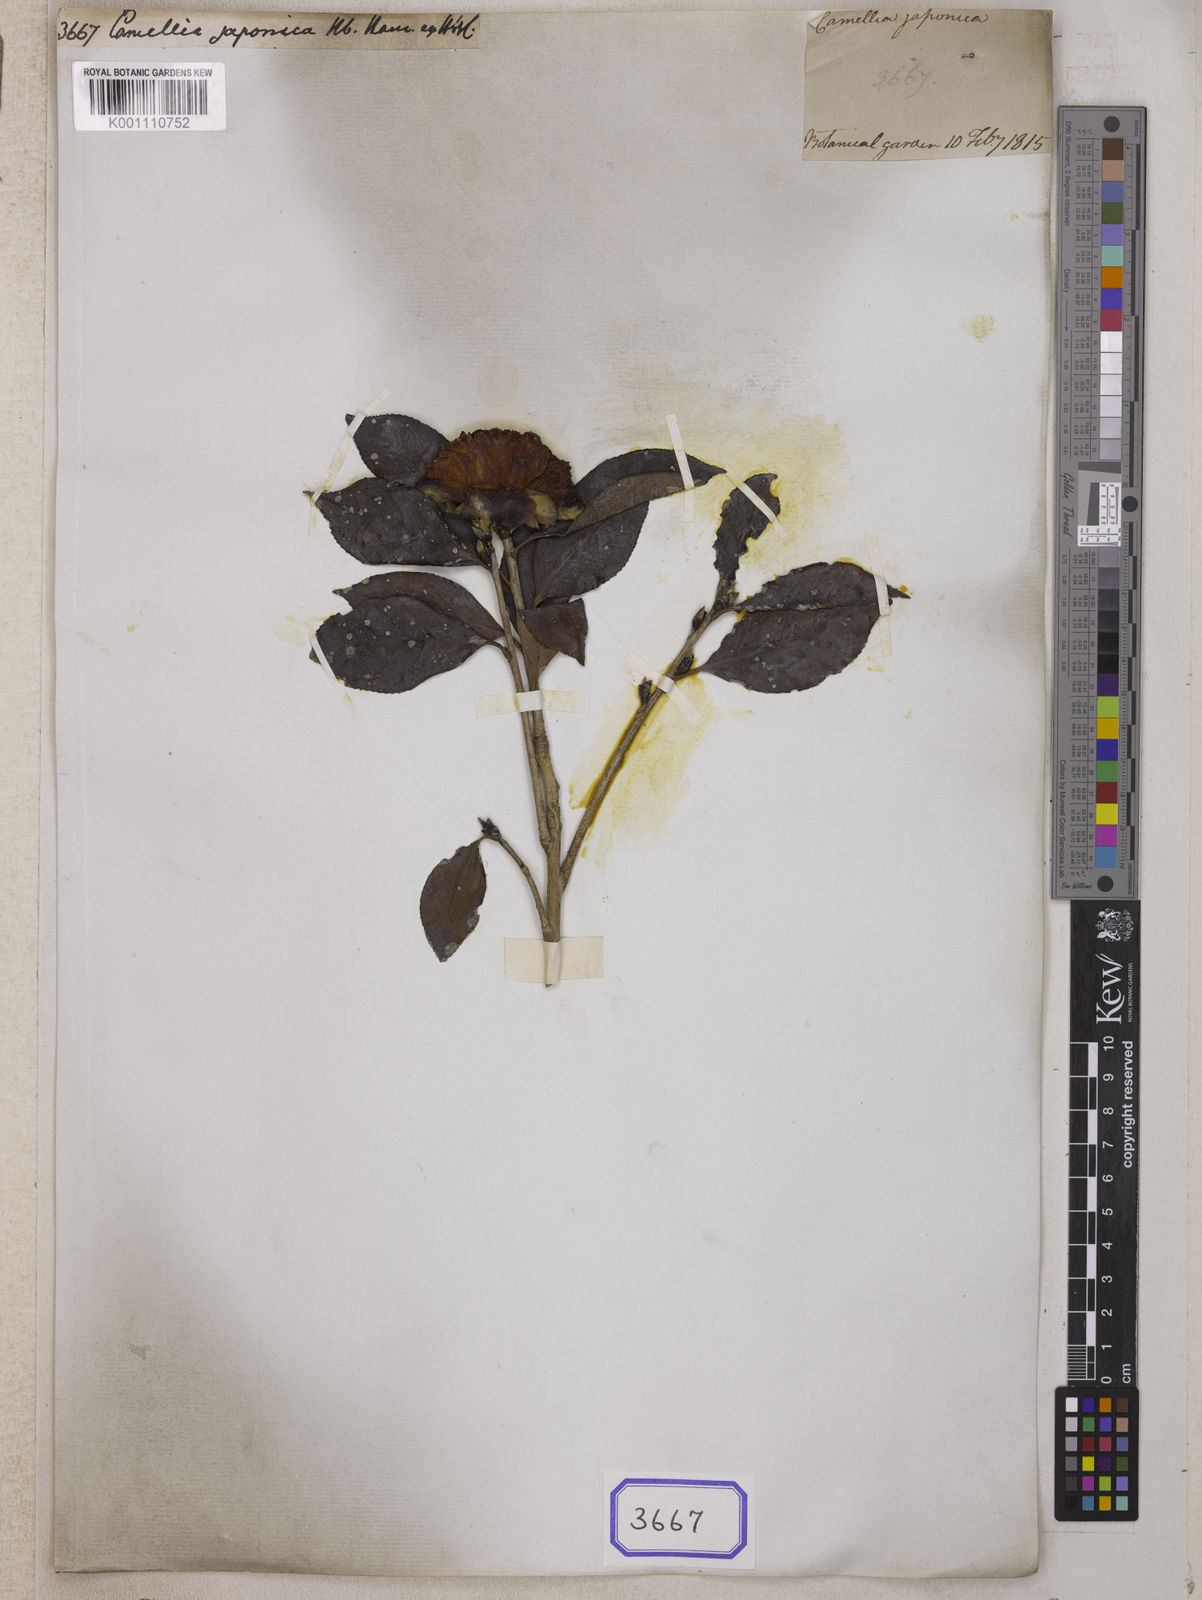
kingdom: Plantae
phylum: Tracheophyta
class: Magnoliopsida
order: Ericales
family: Theaceae
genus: Camellia
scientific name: Camellia
